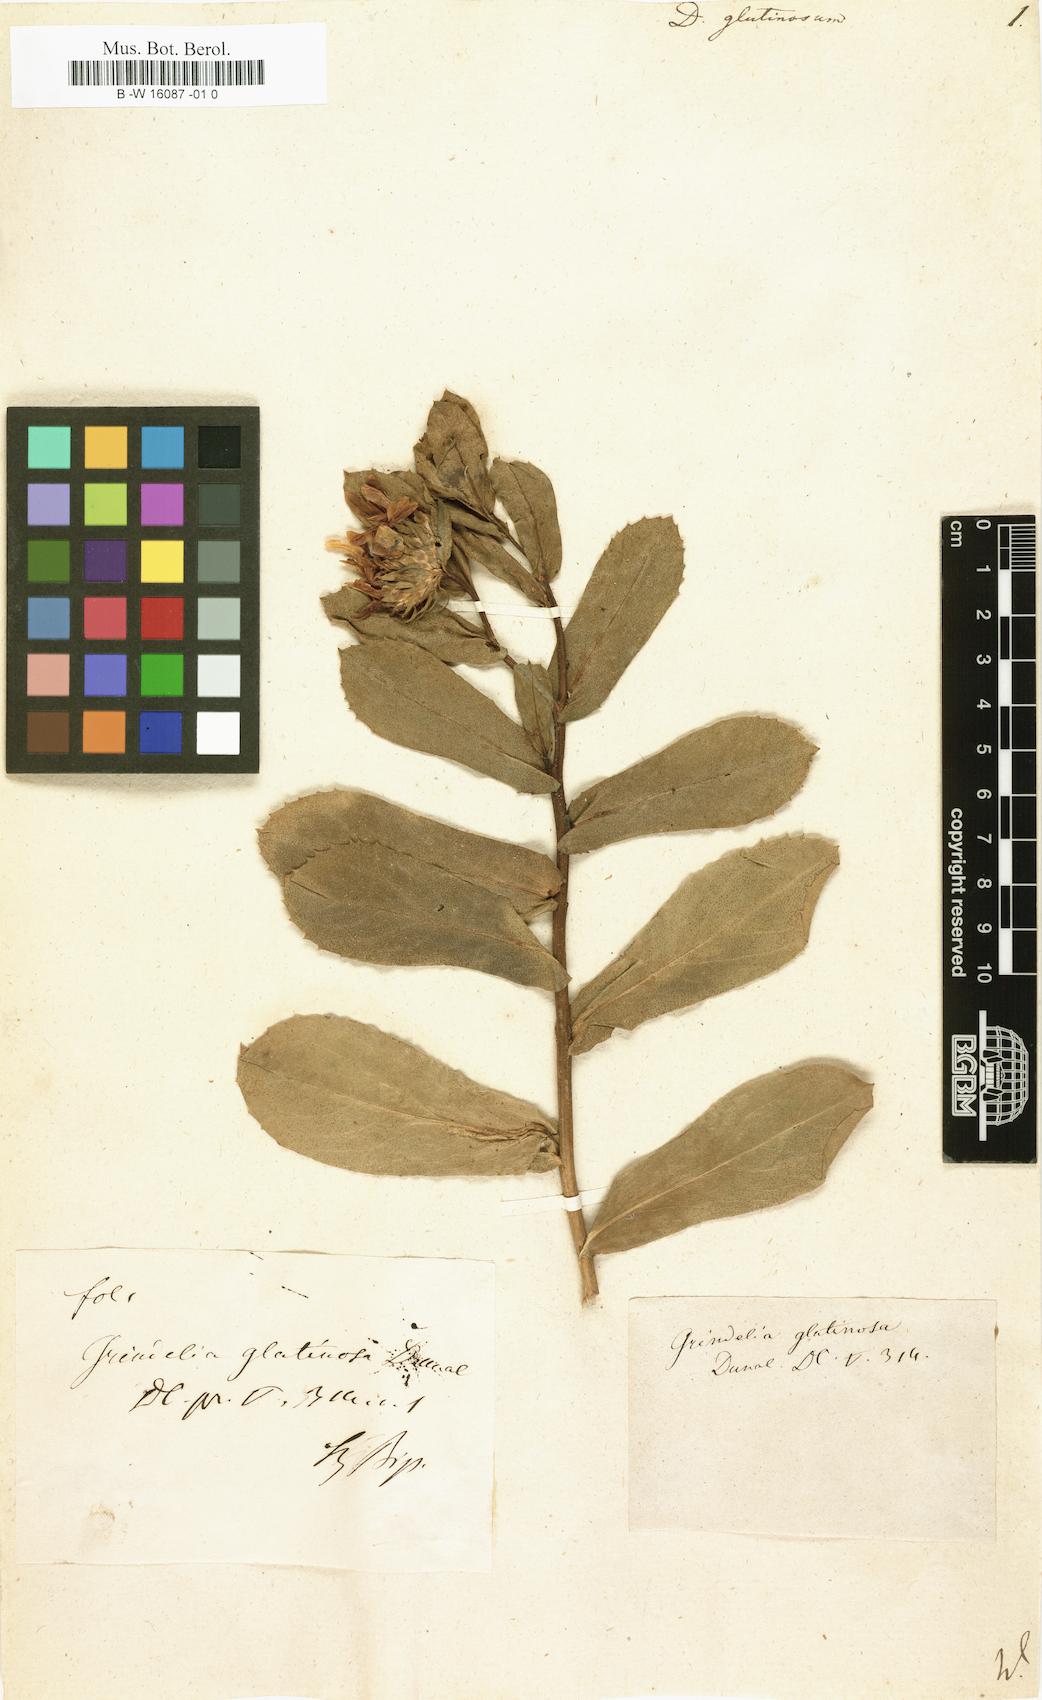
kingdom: Plantae
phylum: Tracheophyta
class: Magnoliopsida
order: Asterales
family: Asteraceae
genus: Grindelia
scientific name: Grindelia glutinosa
